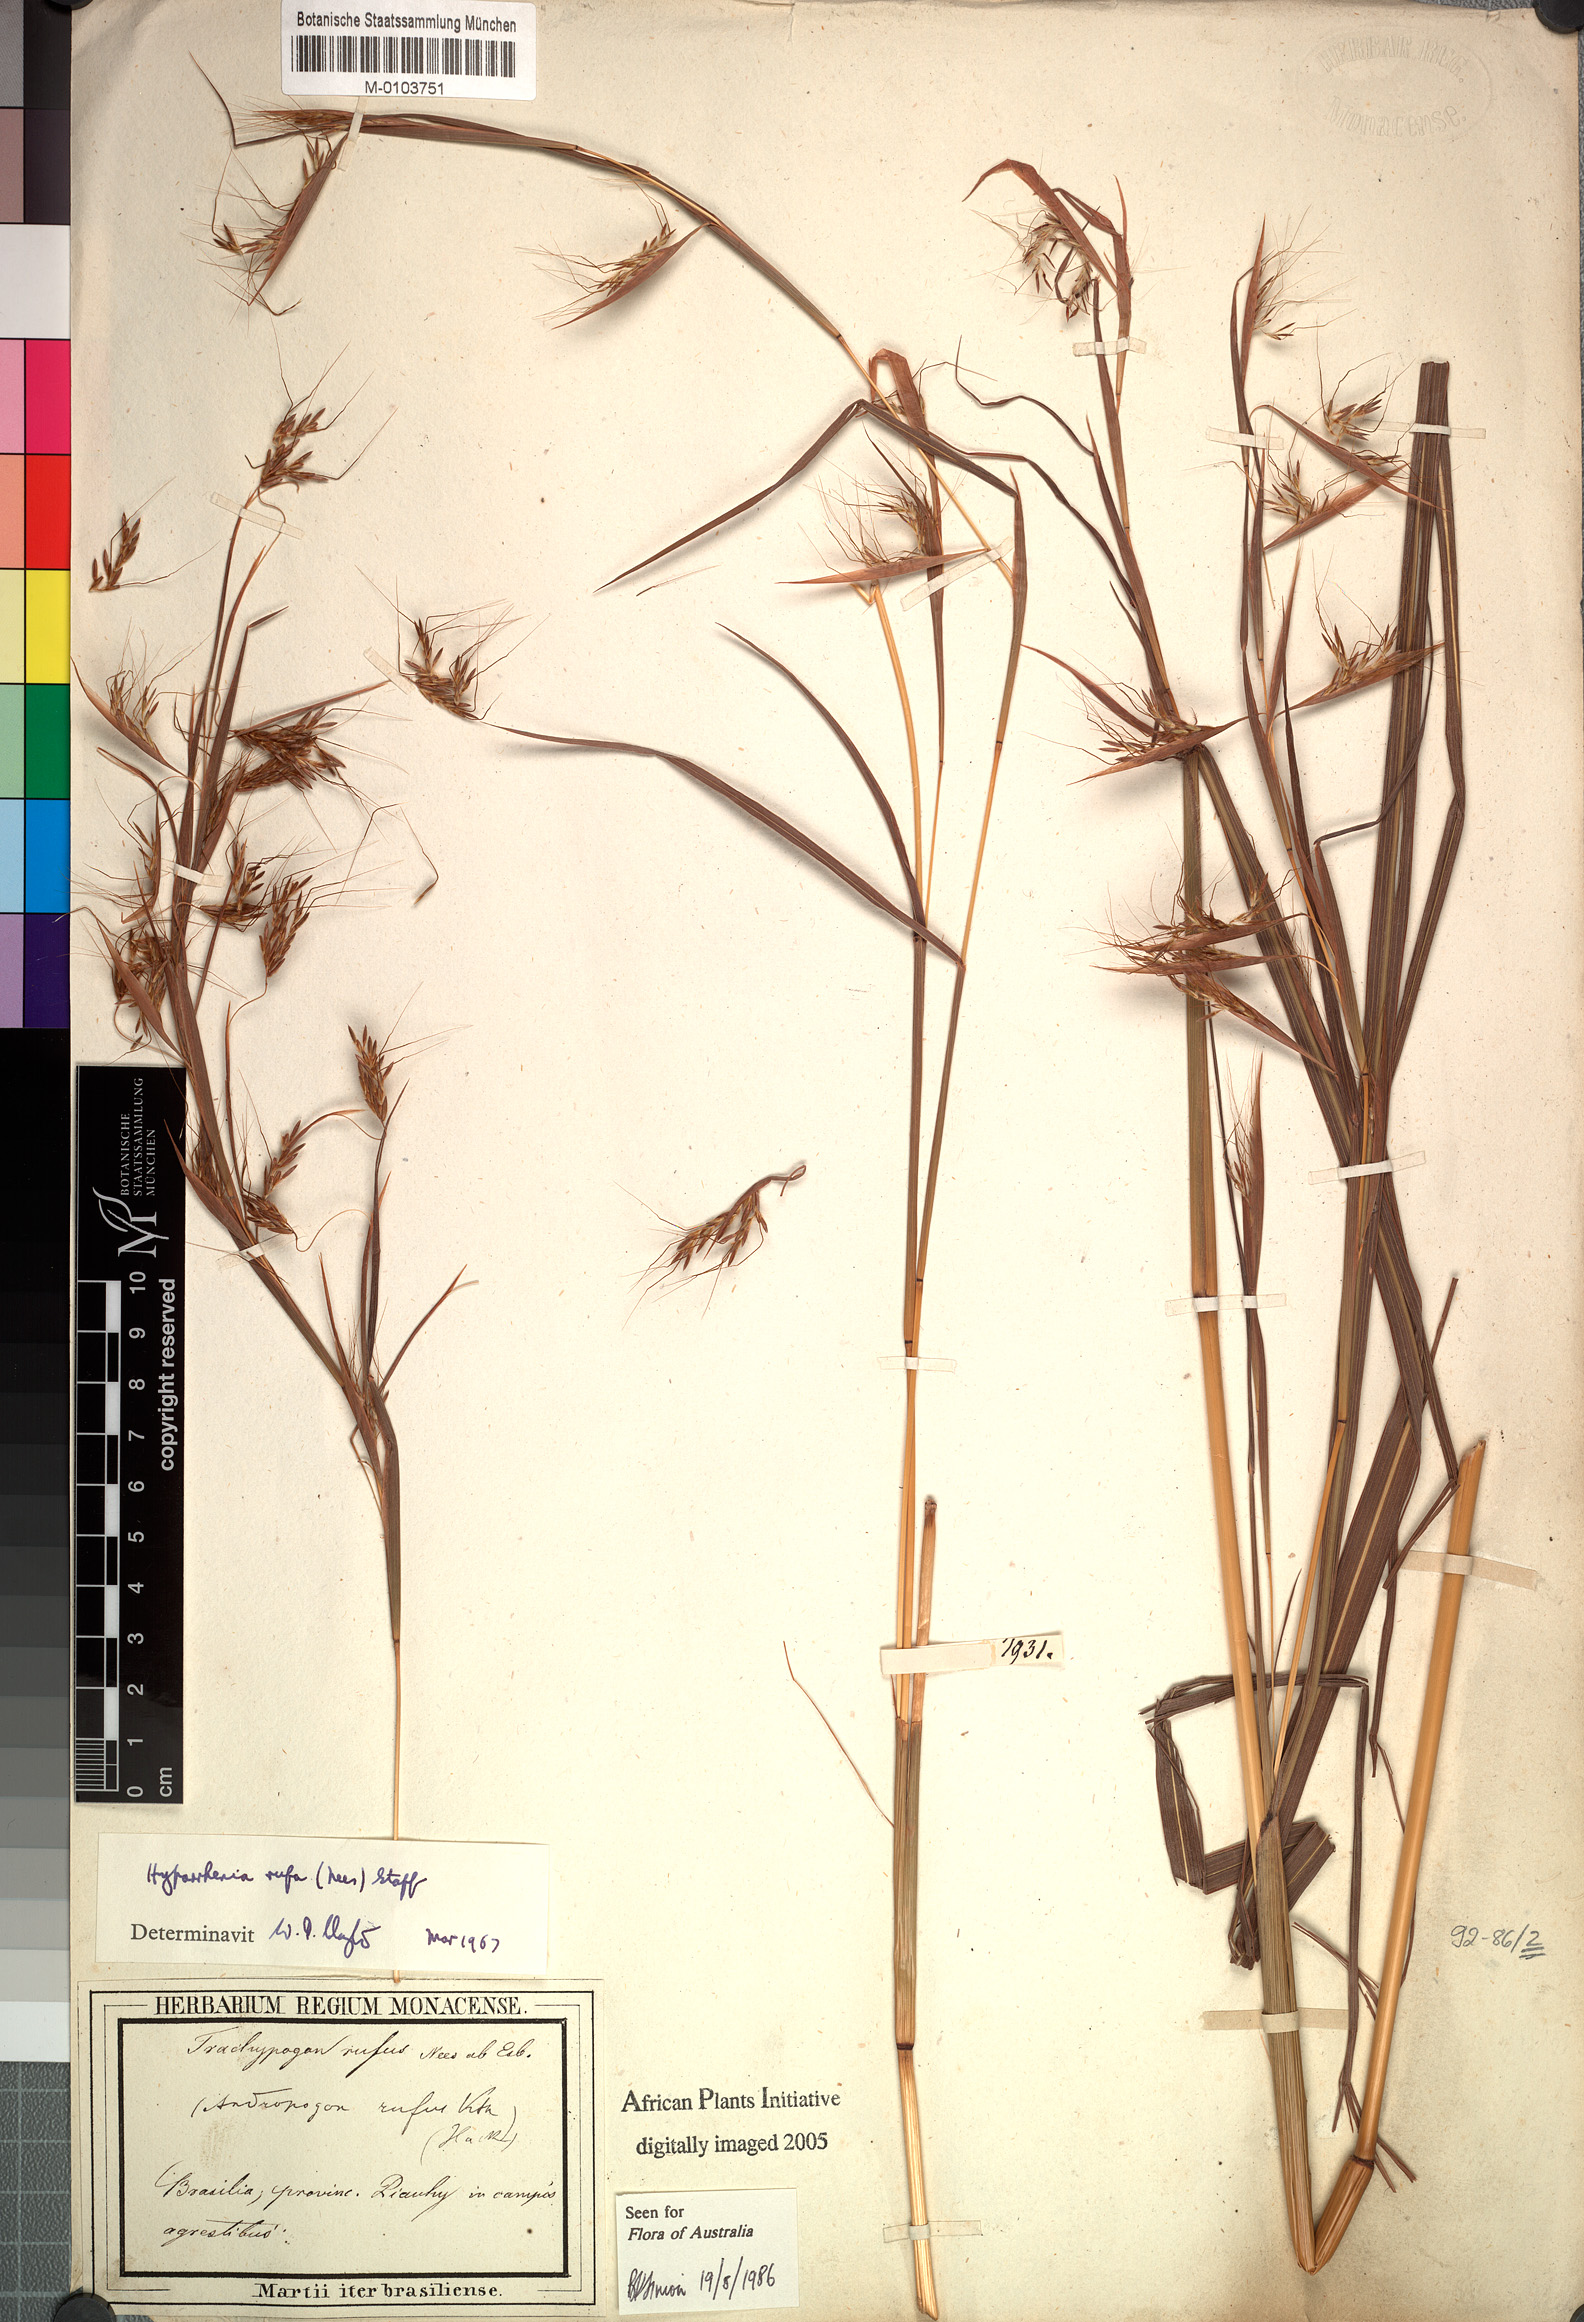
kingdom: Plantae
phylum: Tracheophyta
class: Liliopsida
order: Poales
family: Poaceae
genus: Hyparrhenia
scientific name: Hyparrhenia rufa
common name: Jaraguagrass
